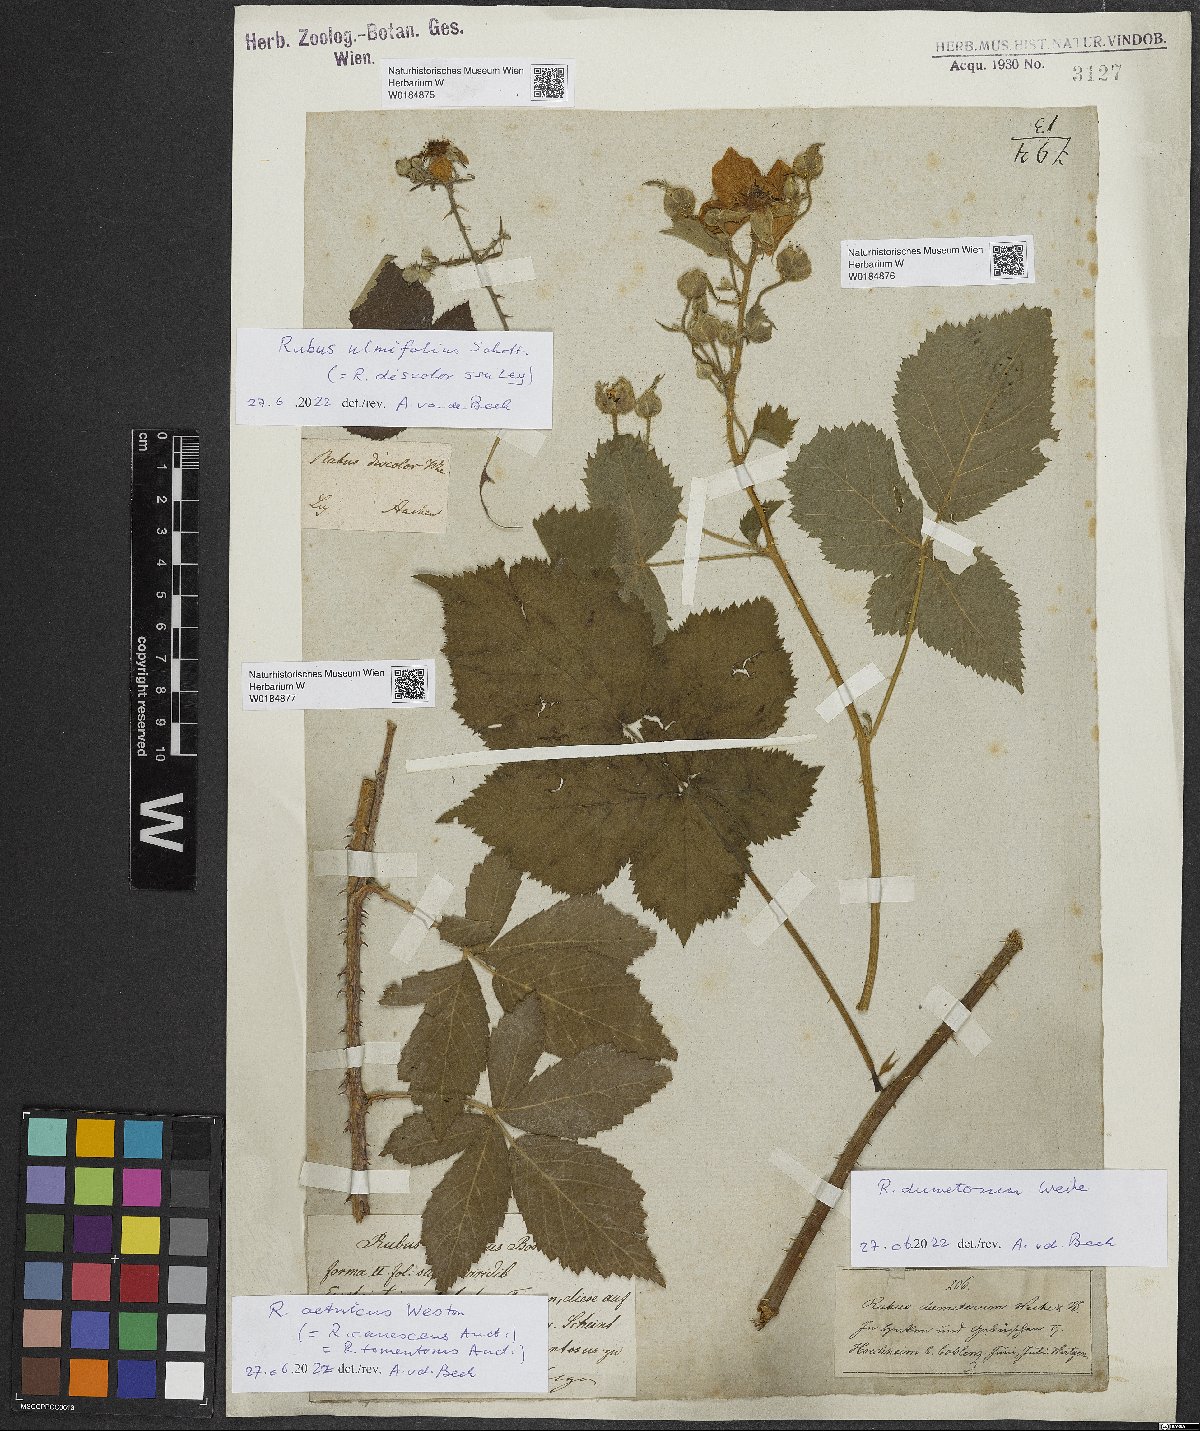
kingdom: Plantae
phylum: Tracheophyta
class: Magnoliopsida
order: Rosales
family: Rosaceae
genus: Rubus
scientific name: Rubus aetnicus
